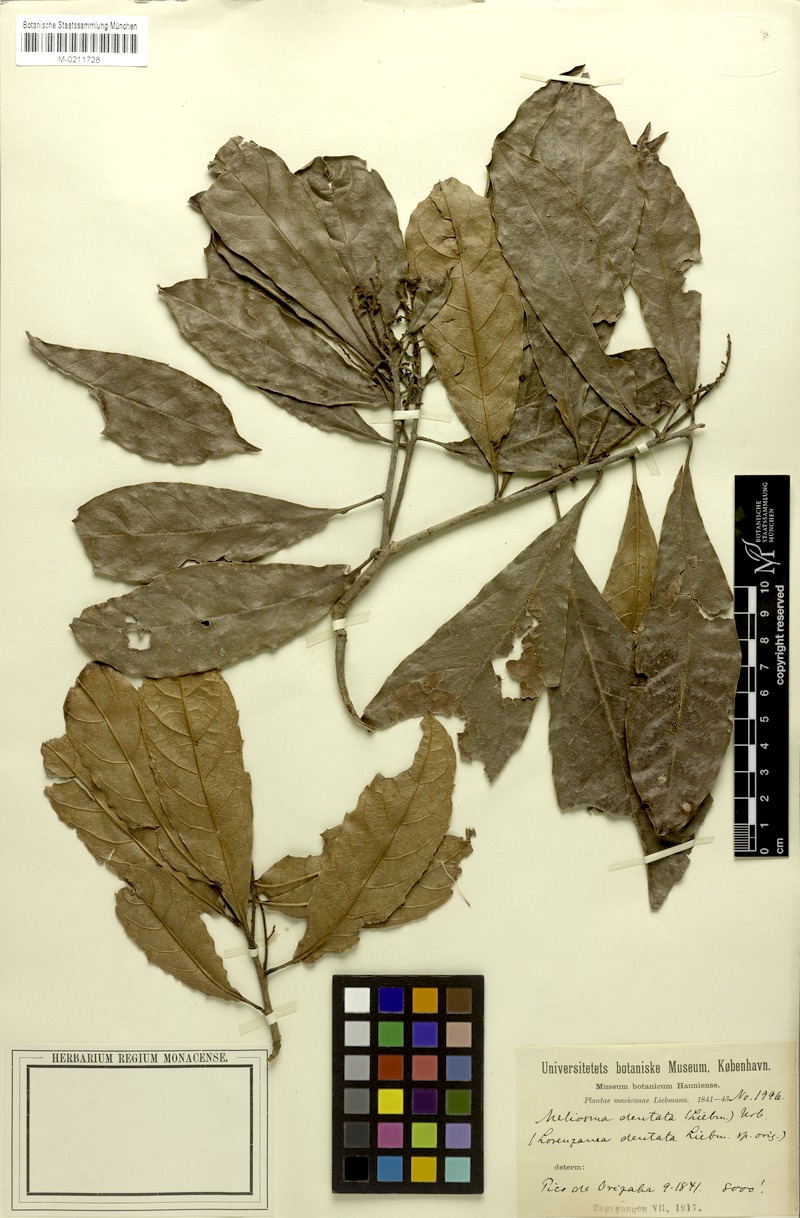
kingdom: Plantae
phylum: Tracheophyta
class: Magnoliopsida
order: Proteales
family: Sabiaceae
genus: Meliosma
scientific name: Meliosma dentata
